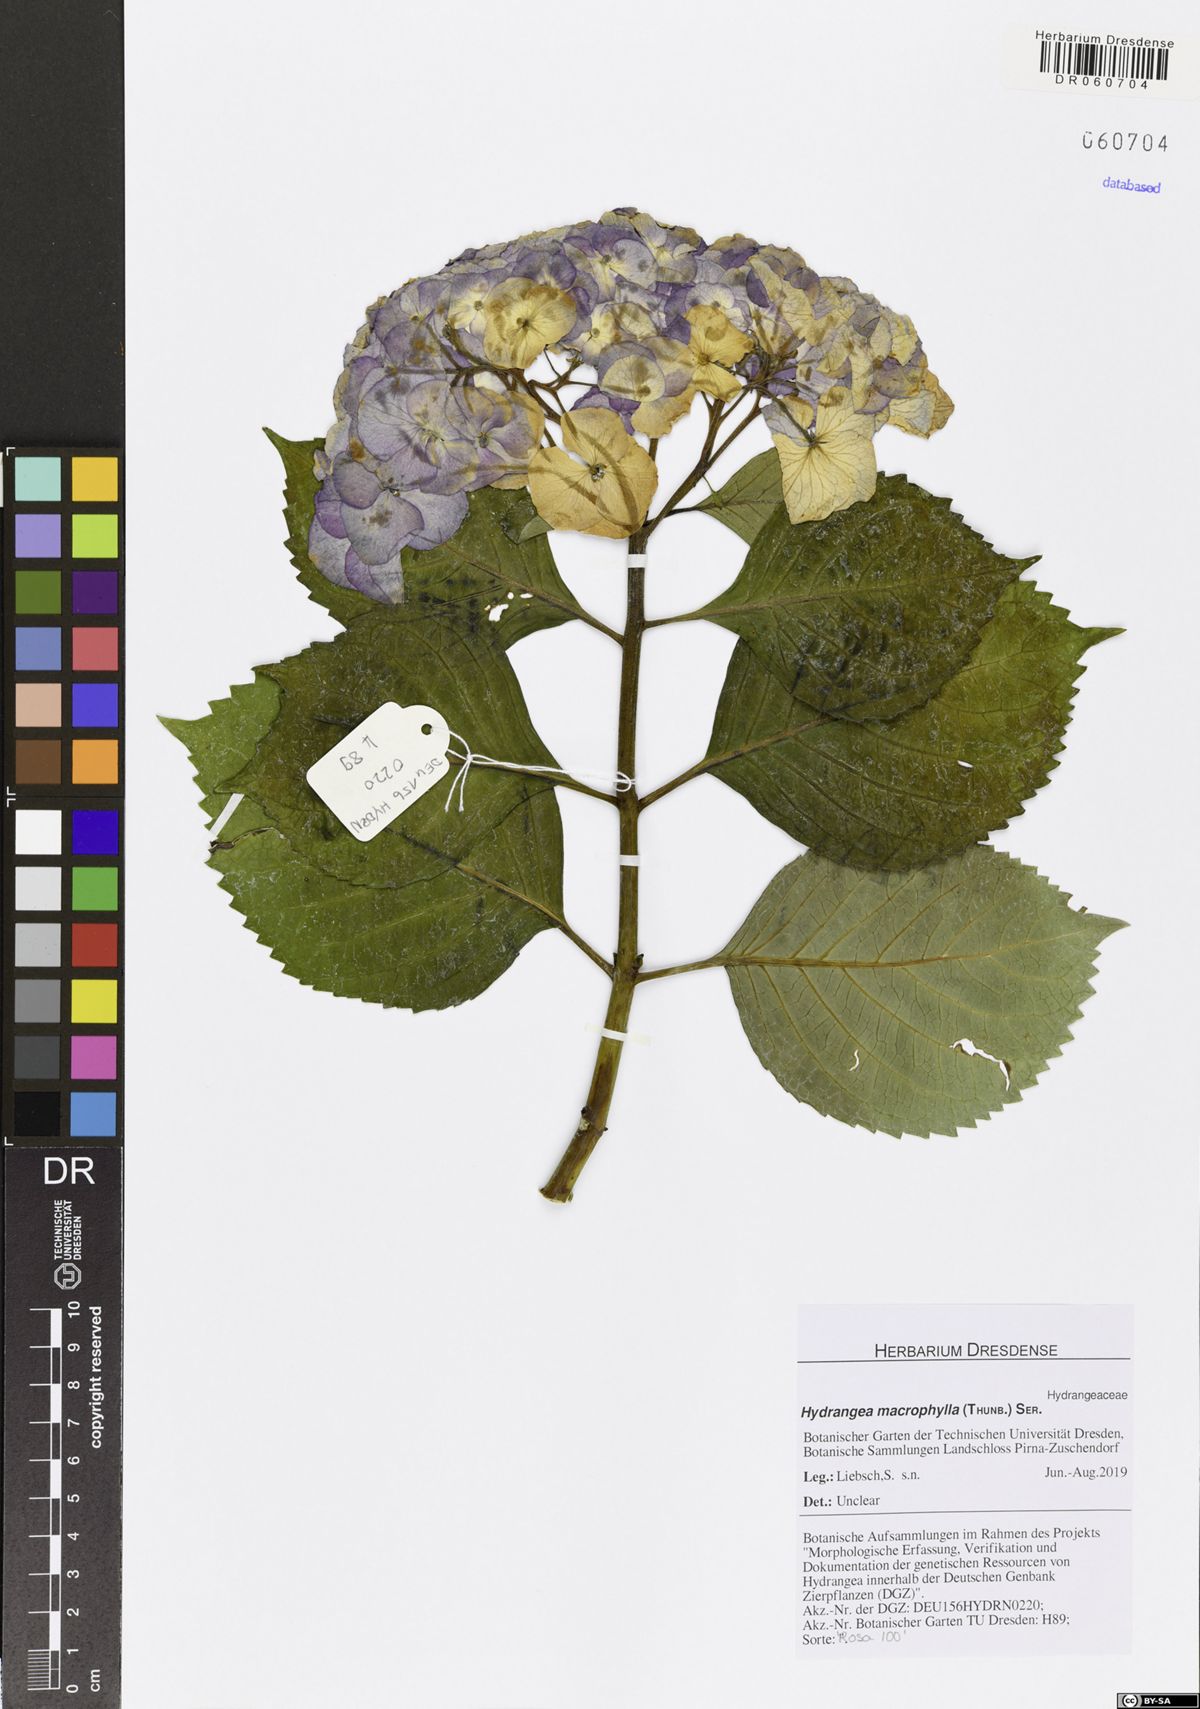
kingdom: Plantae
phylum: Tracheophyta
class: Magnoliopsida
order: Cornales
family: Hydrangeaceae
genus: Hydrangea
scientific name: Hydrangea macrophylla
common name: Hydrangea
